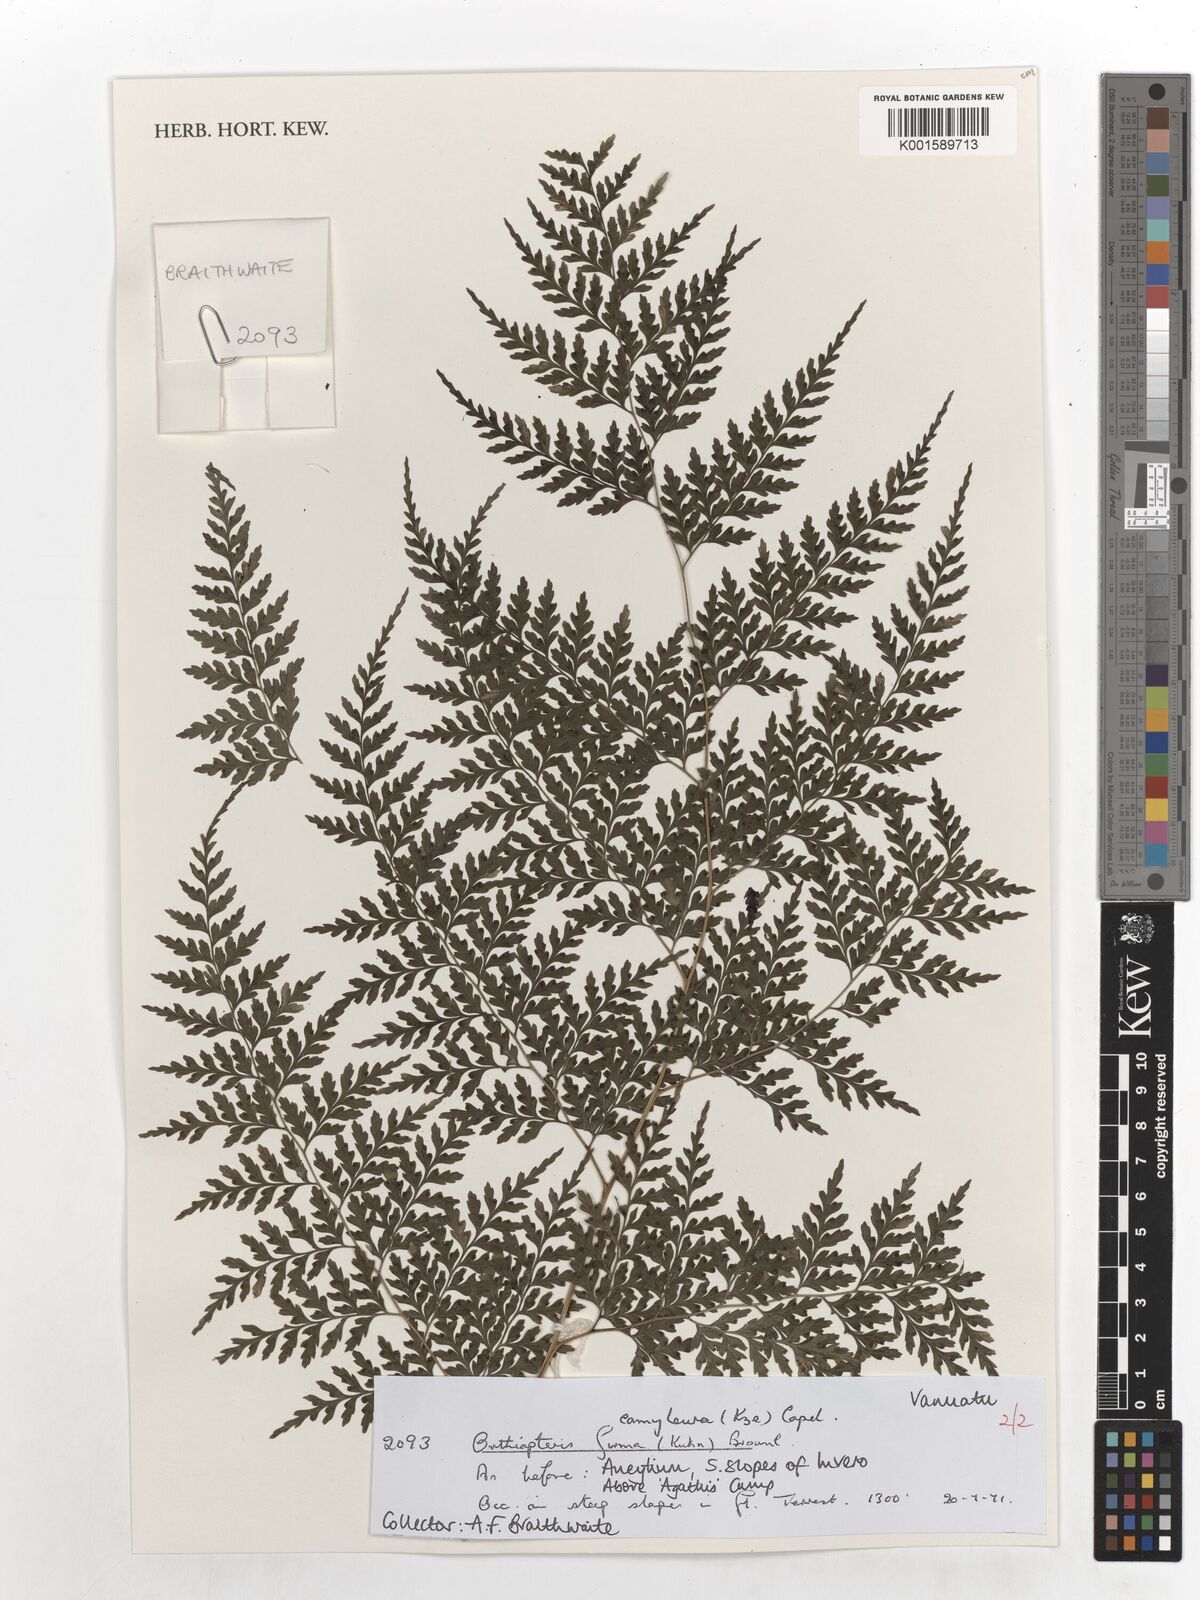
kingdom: Plantae
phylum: Tracheophyta
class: Polypodiopsida
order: Polypodiales
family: Saccolomataceae
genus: Orthiopteris
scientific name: Orthiopteris firma
